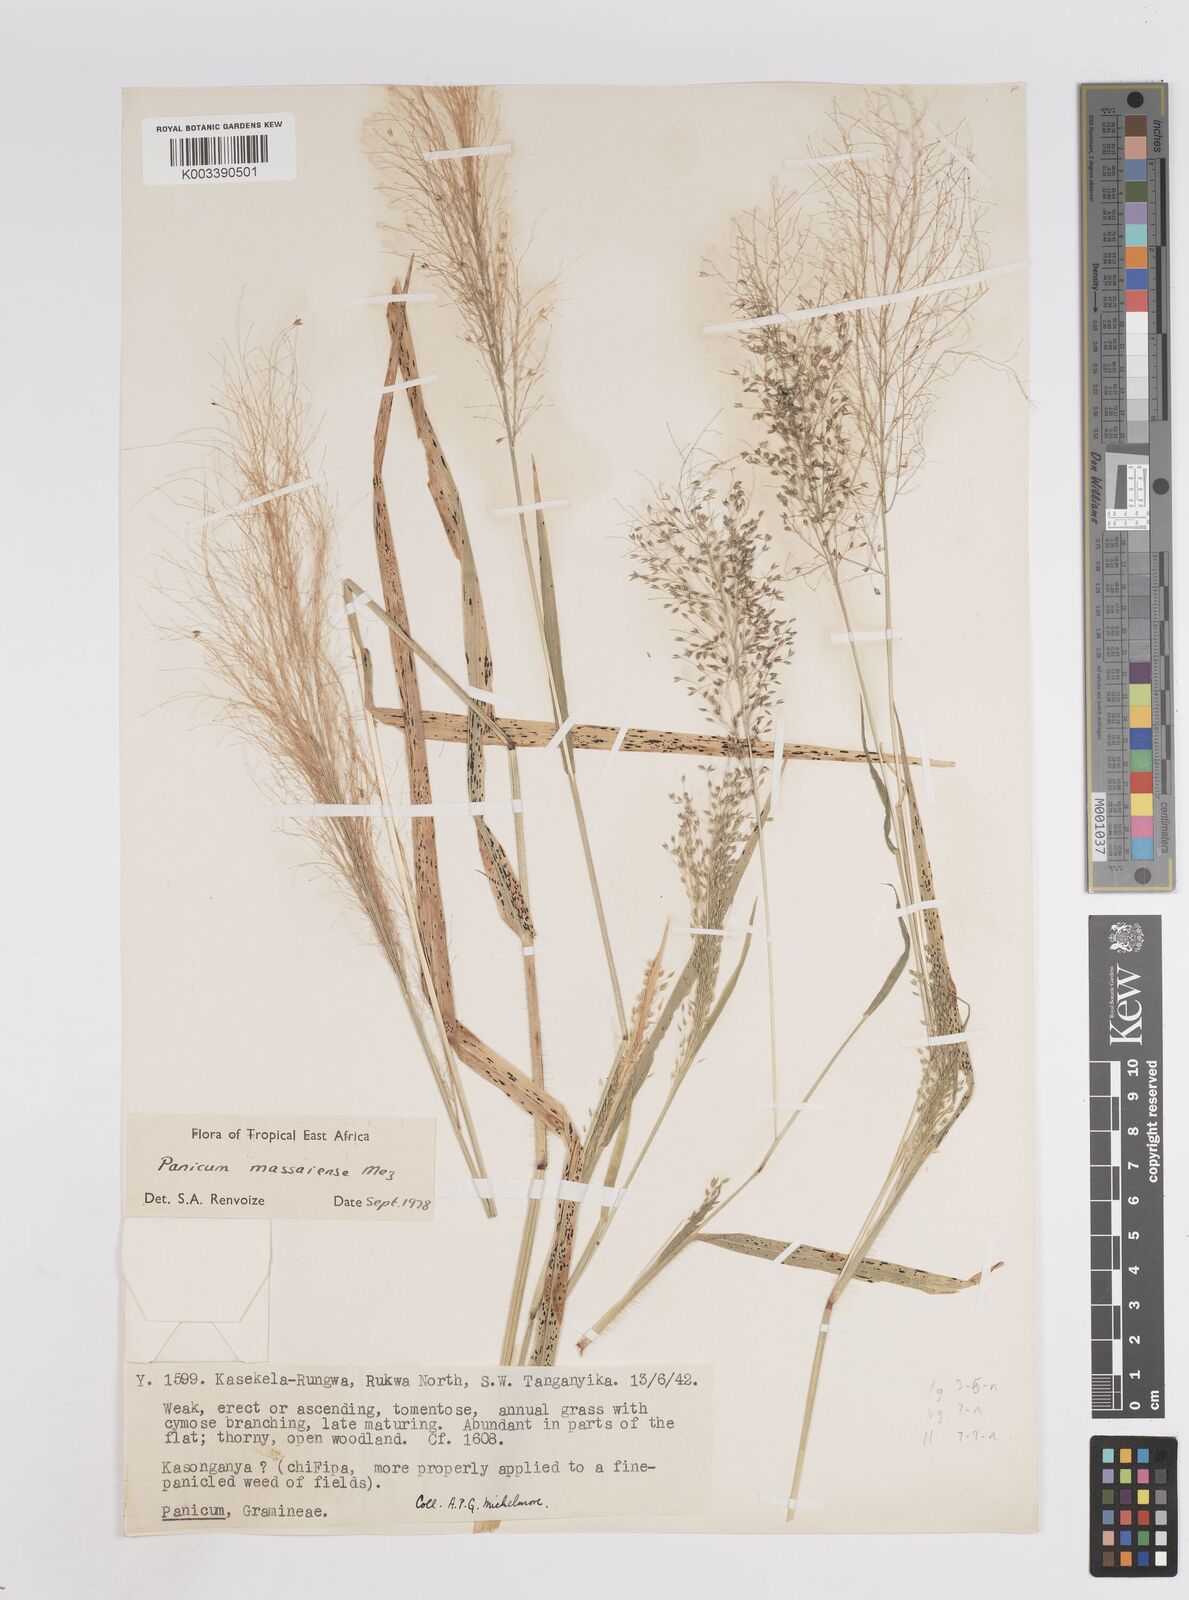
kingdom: Plantae
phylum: Tracheophyta
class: Liliopsida
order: Poales
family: Poaceae
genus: Panicum
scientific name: Panicum massaiense
